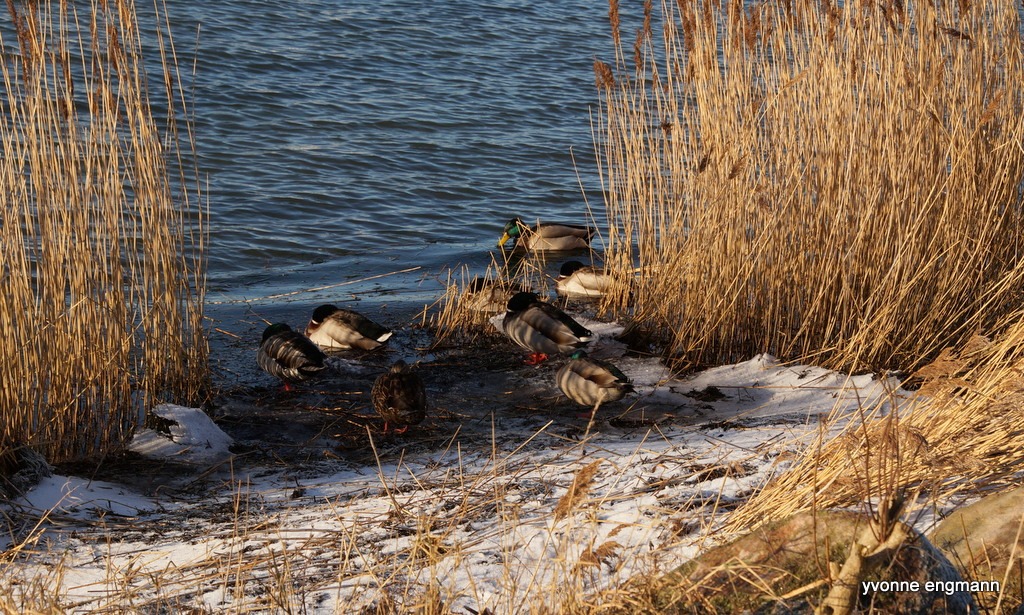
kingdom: Animalia
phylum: Chordata
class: Aves
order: Anseriformes
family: Anatidae
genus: Anas
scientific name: Anas platyrhynchos
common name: Gråand
